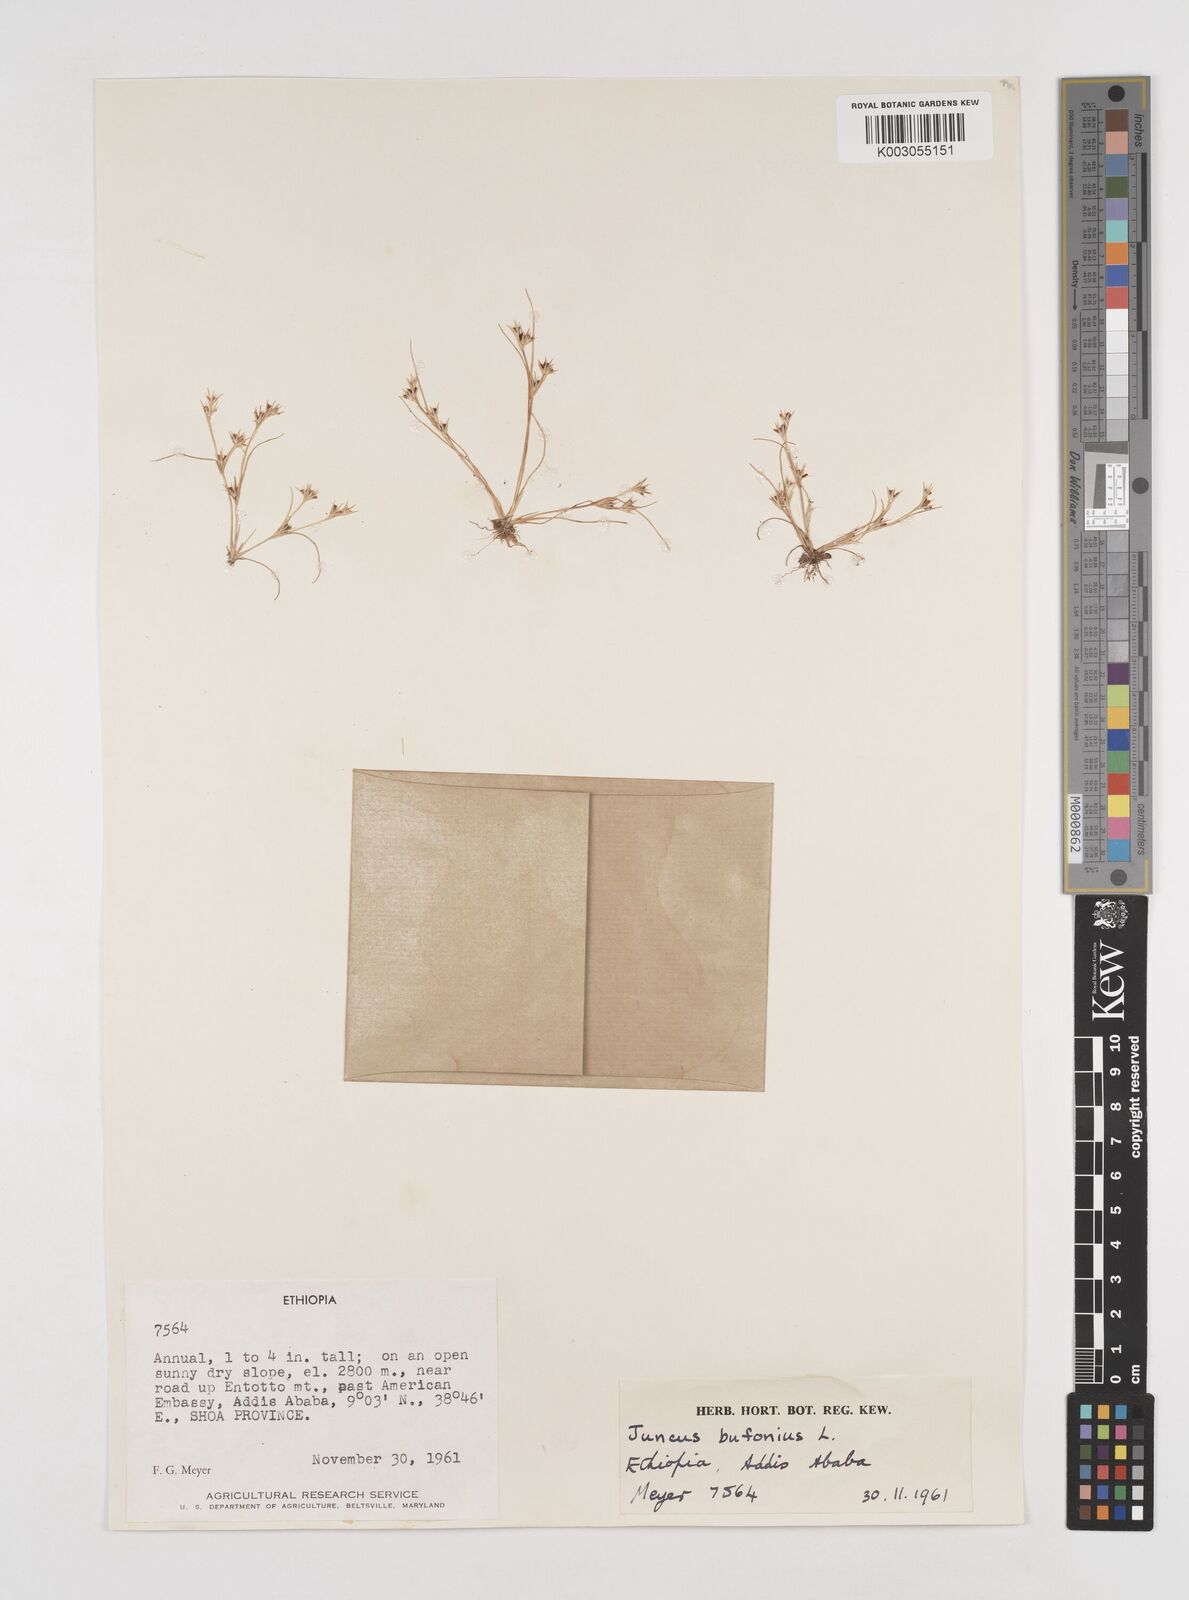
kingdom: Plantae
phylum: Tracheophyta
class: Liliopsida
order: Poales
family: Juncaceae
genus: Juncus
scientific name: Juncus bufonius
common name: Toad rush
